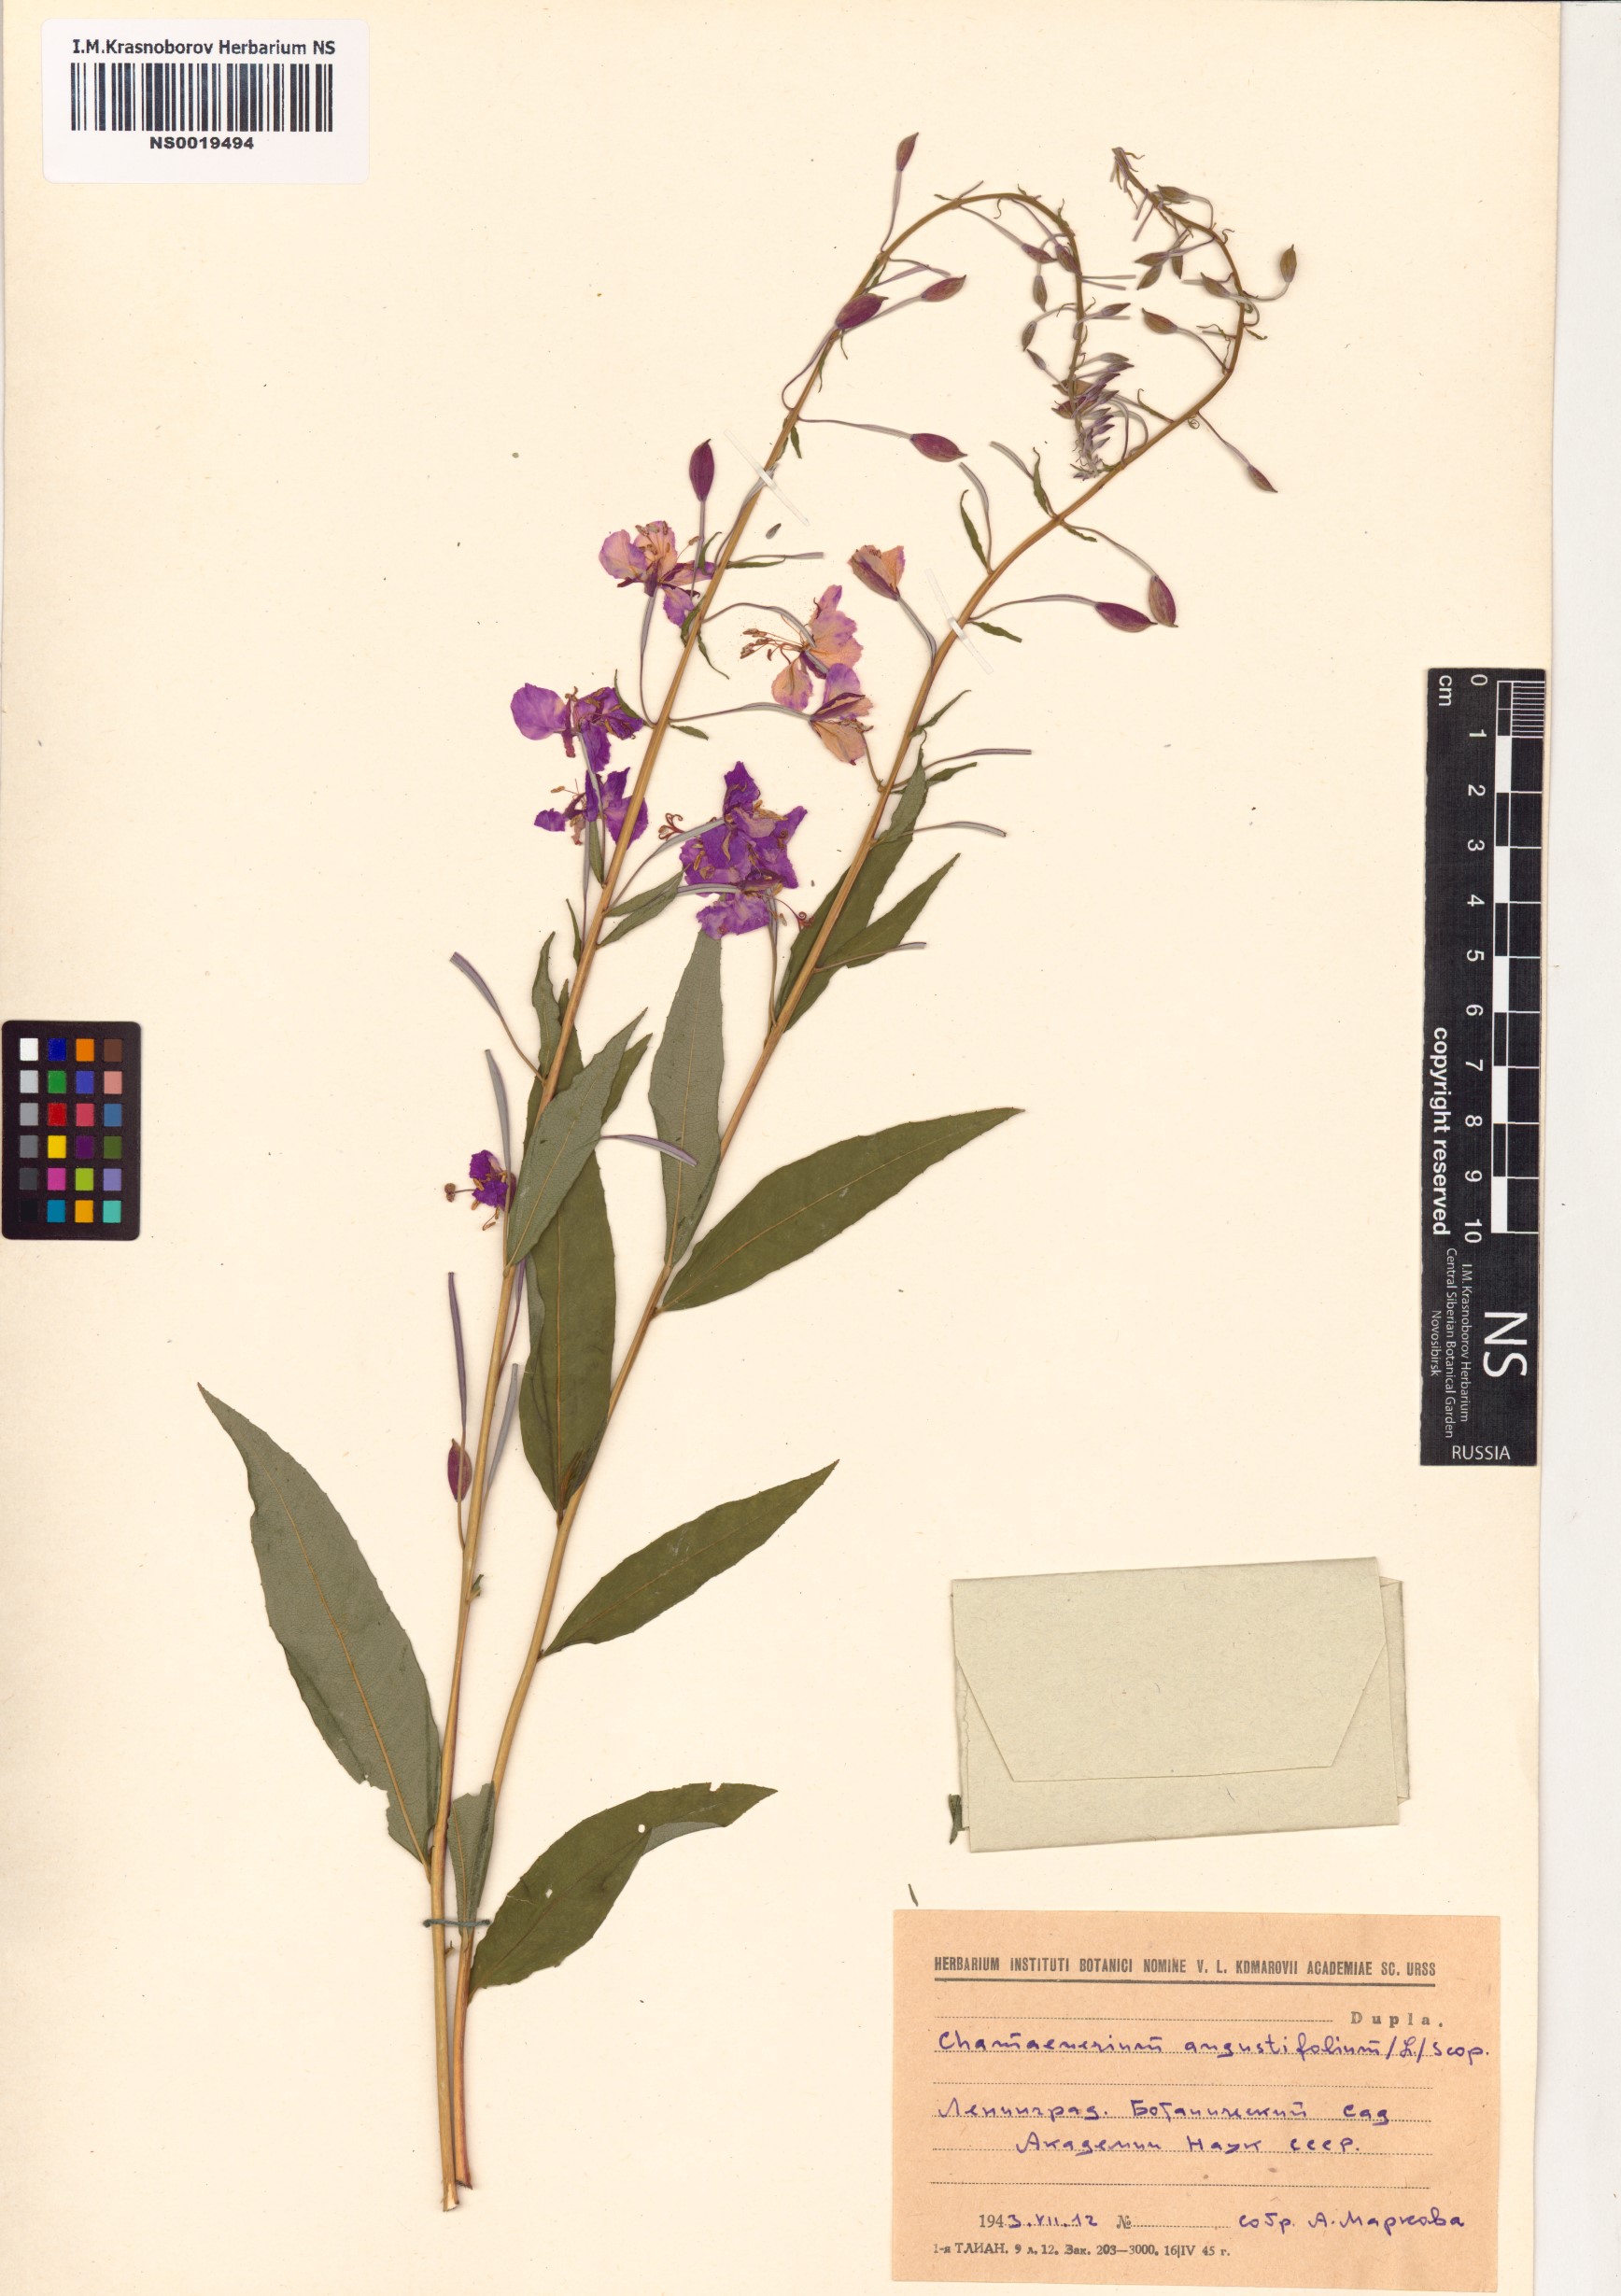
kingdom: Plantae
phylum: Tracheophyta
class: Magnoliopsida
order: Myrtales
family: Onagraceae
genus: Chamaenerion
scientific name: Chamaenerion angustifolium
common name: Fireweed
